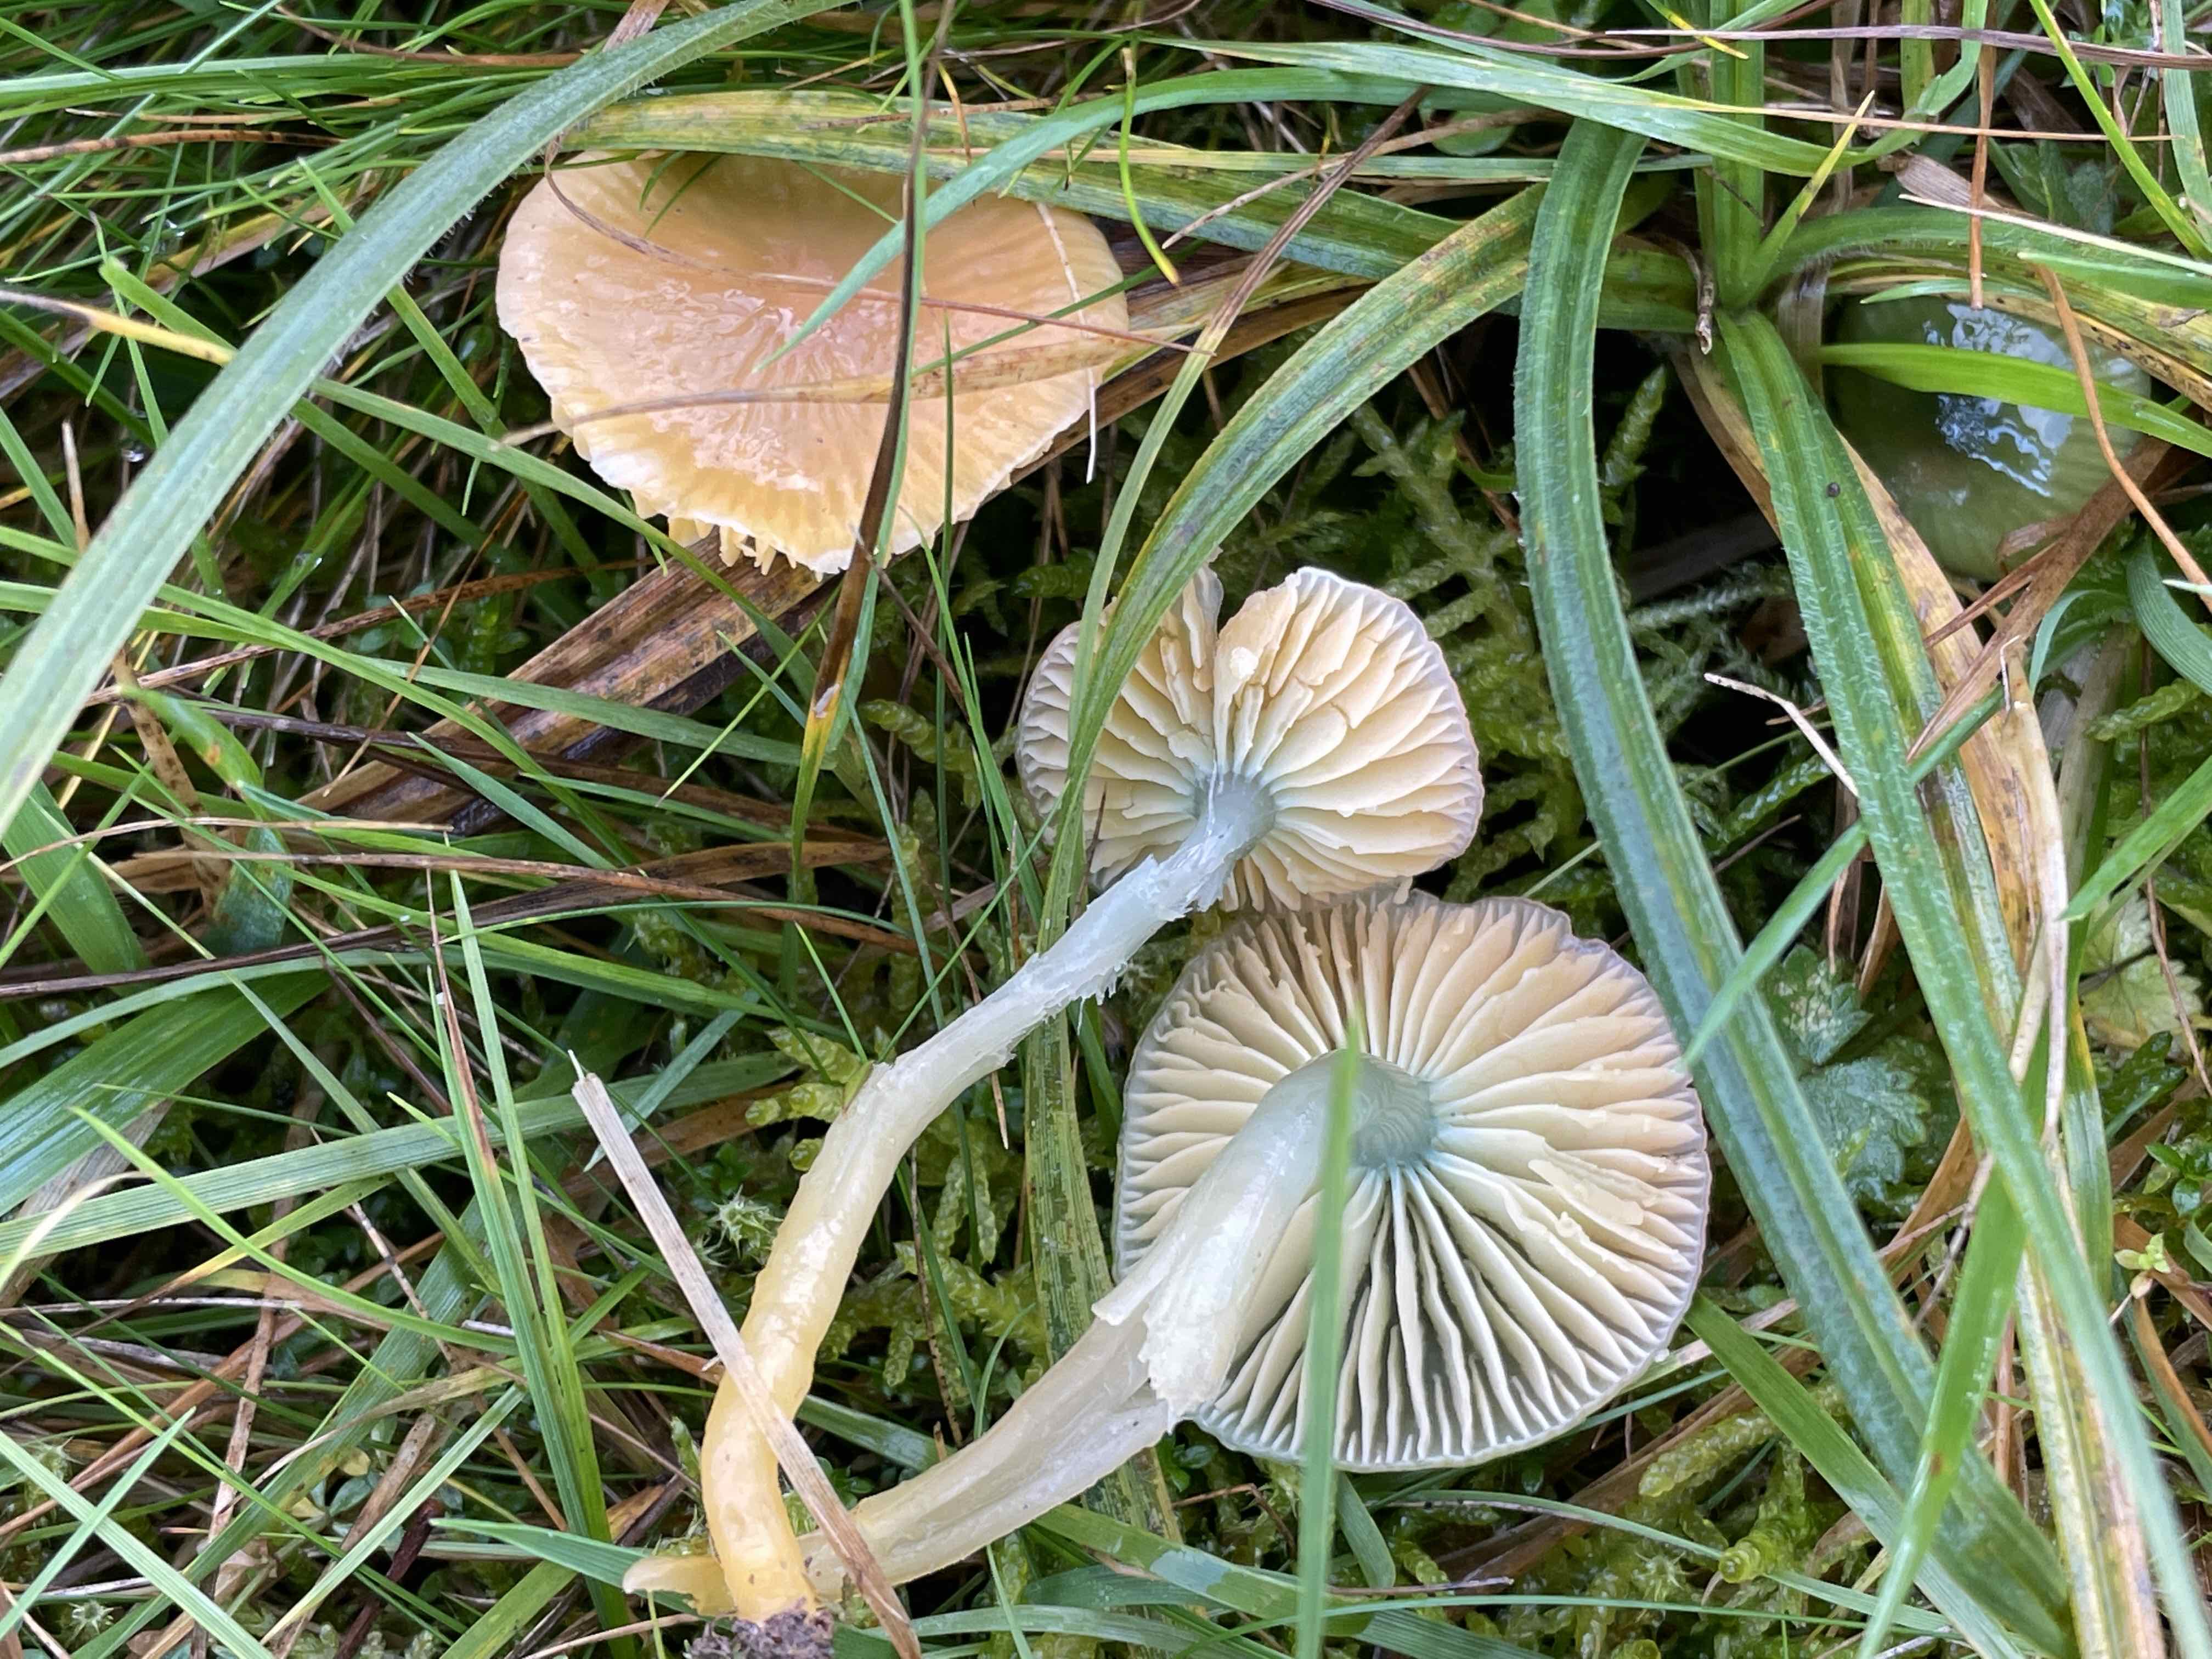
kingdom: Fungi
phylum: Basidiomycota
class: Agaricomycetes
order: Agaricales
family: Hygrophoraceae
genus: Gliophorus
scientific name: Gliophorus laetus
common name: brusk-vokshat
